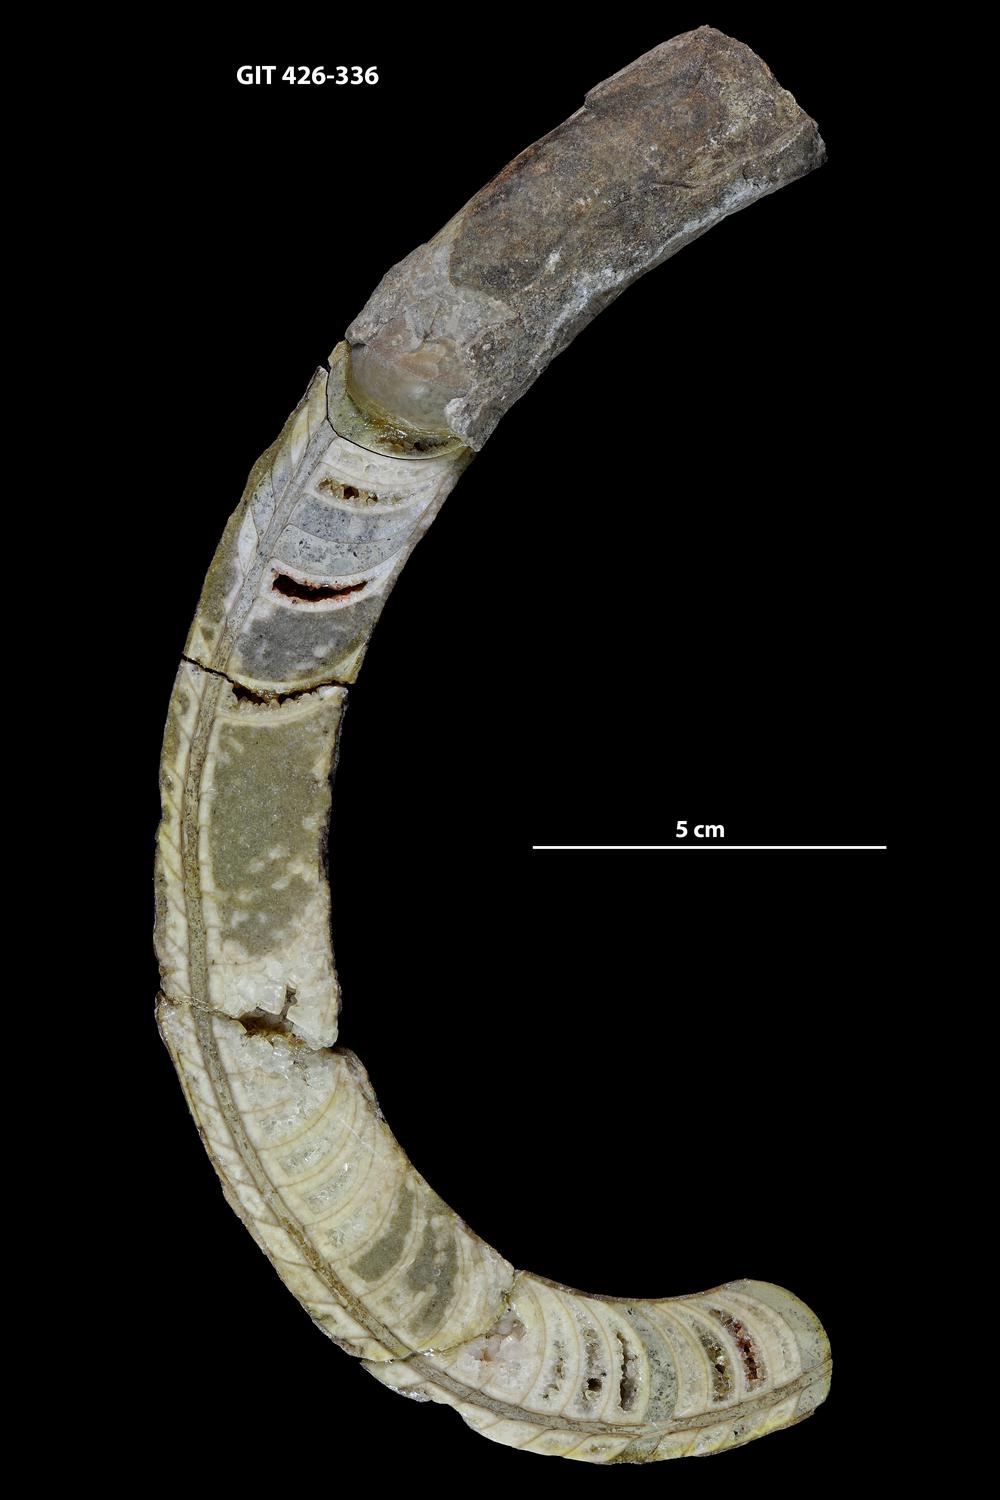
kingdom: Animalia
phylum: Mollusca
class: Cephalopoda
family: Estonioceratidae
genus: Tragoceras
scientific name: Tragoceras
